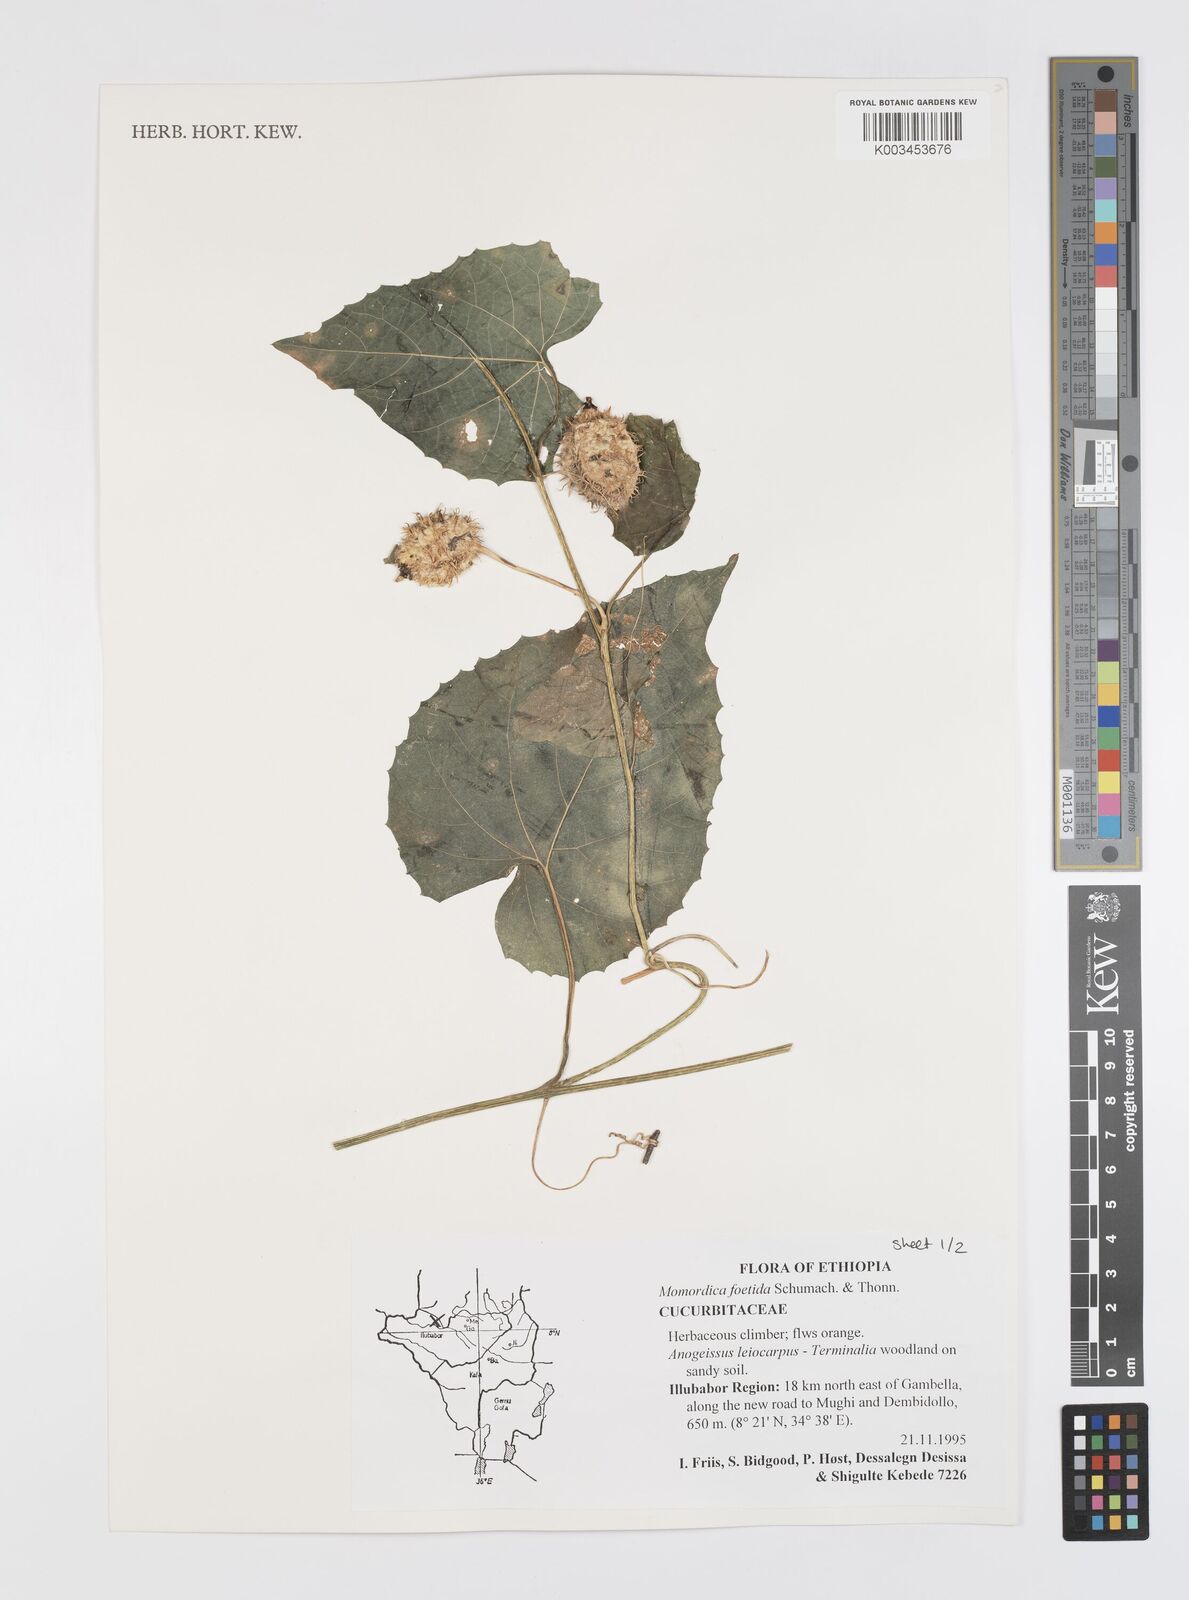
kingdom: Plantae
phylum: Tracheophyta
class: Magnoliopsida
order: Cucurbitales
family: Cucurbitaceae
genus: Momordica
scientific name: Momordica foetida
